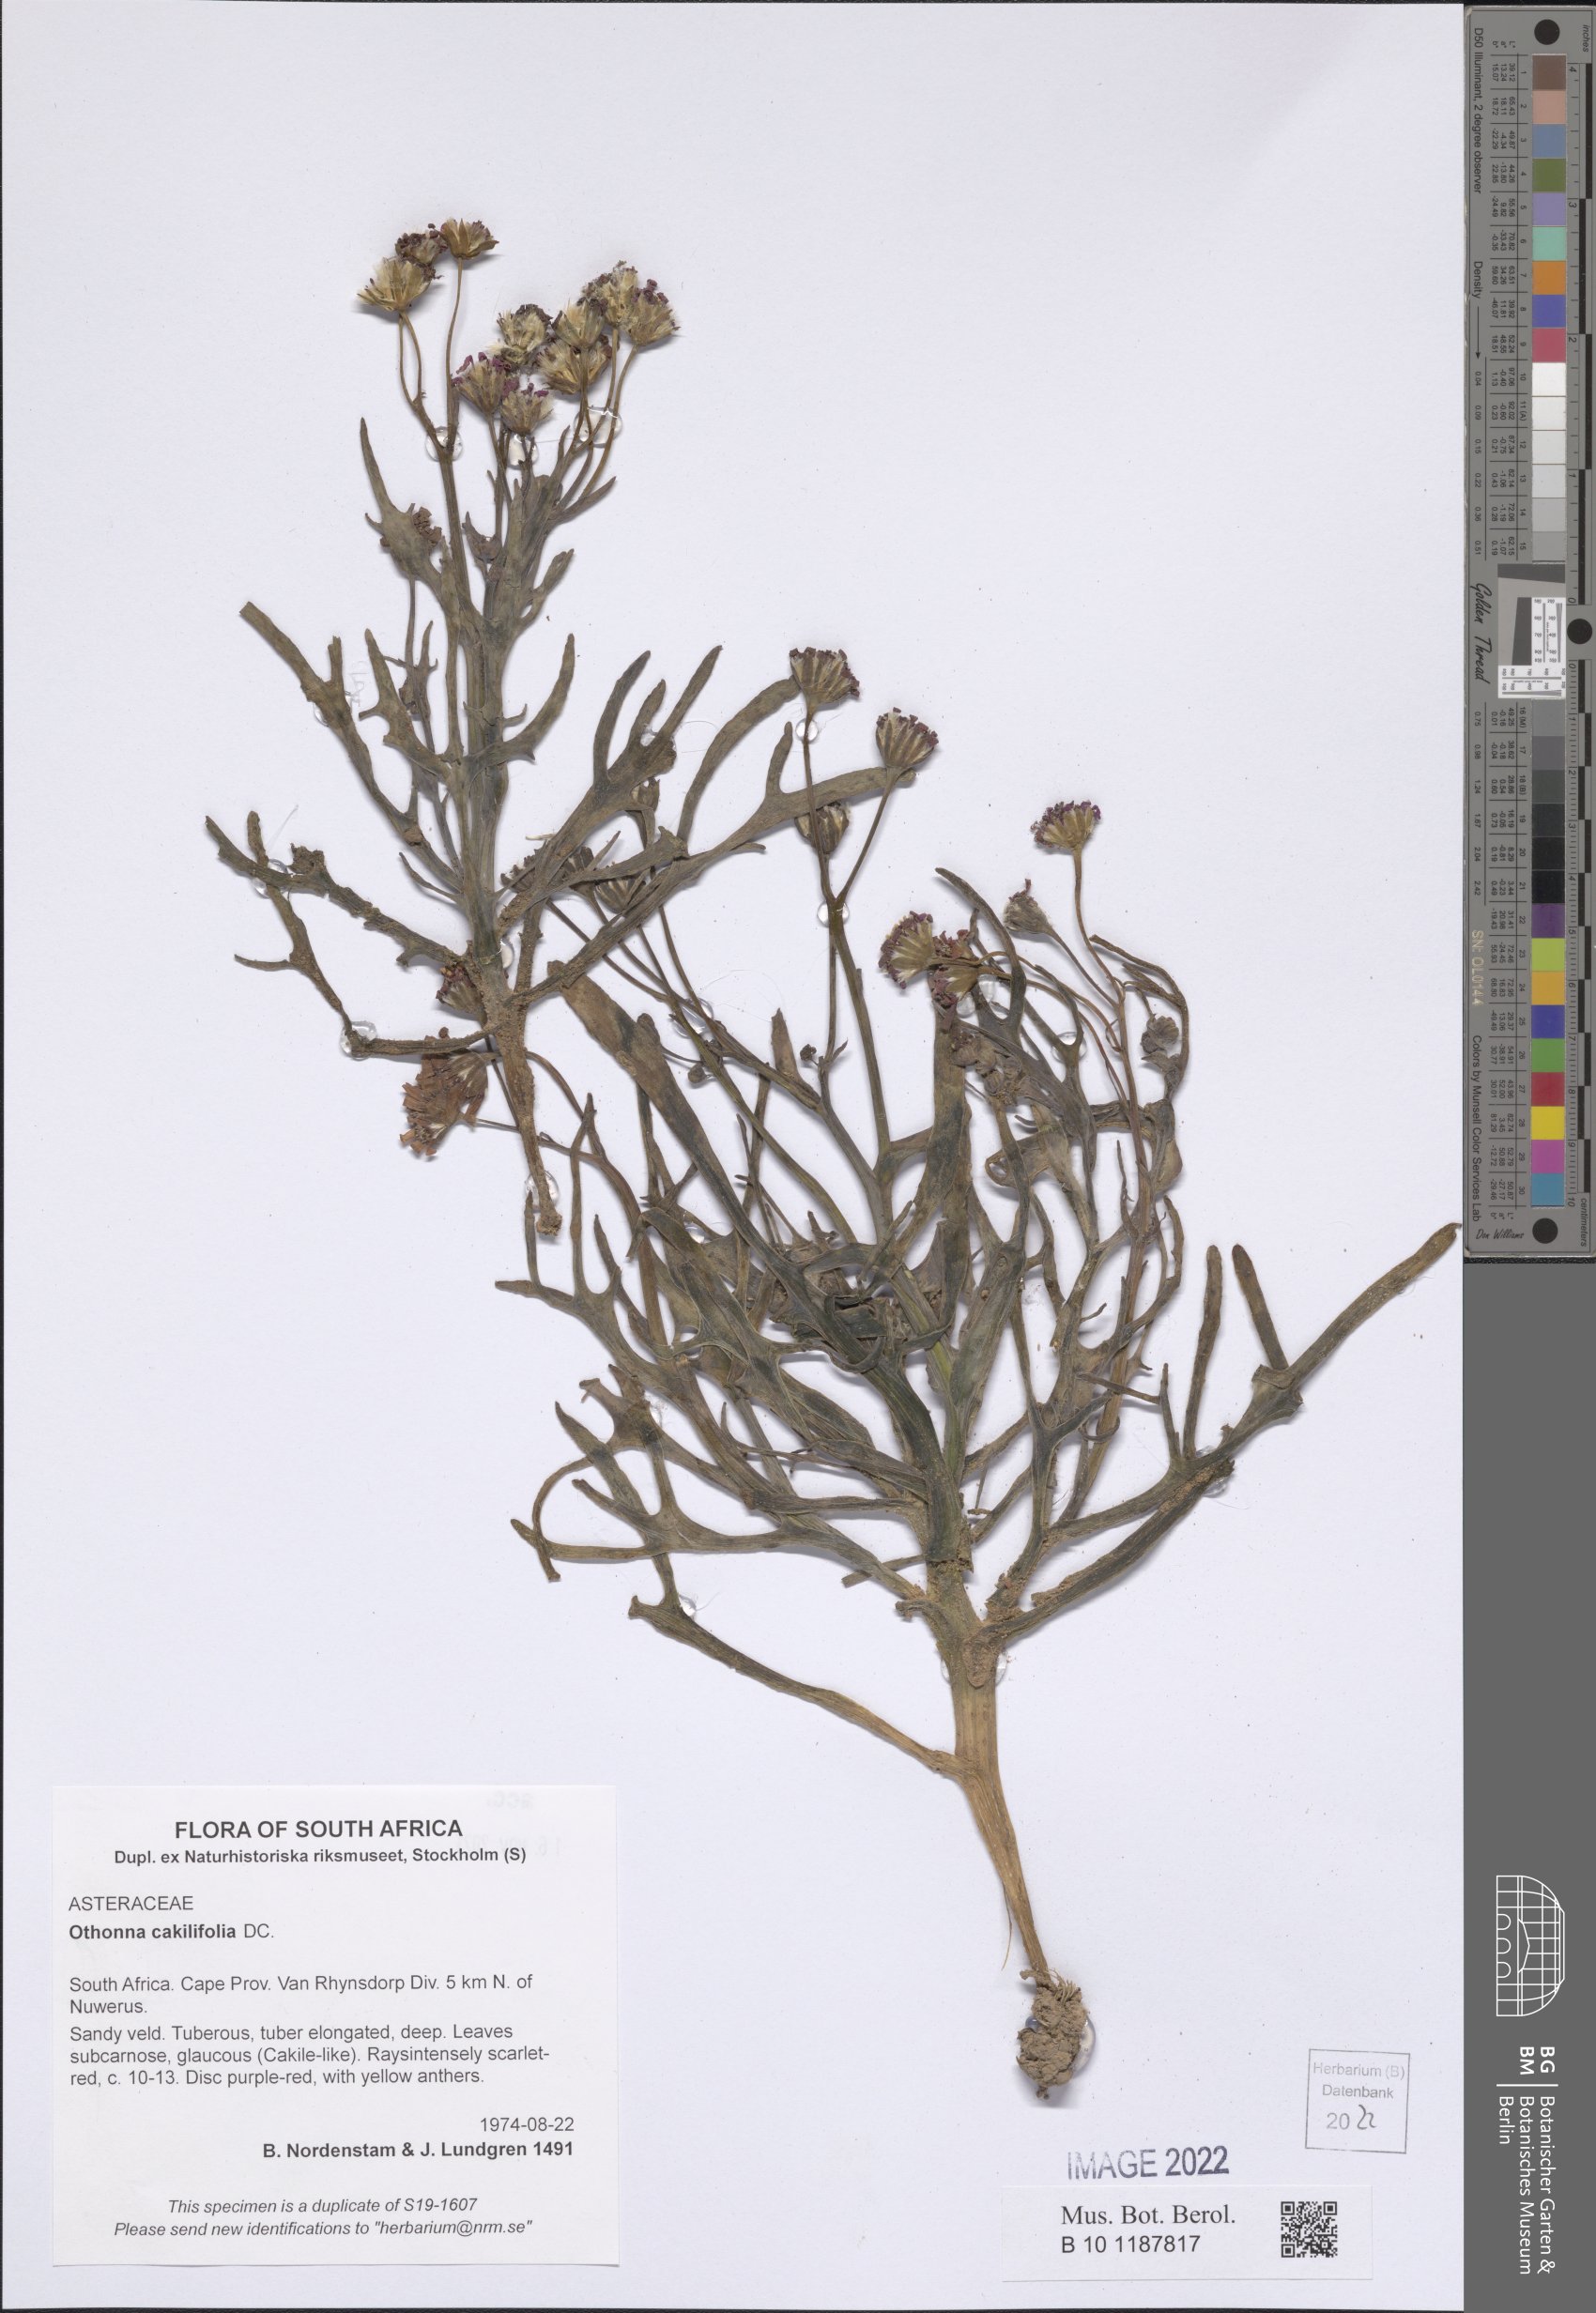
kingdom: Plantae
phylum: Tracheophyta
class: Magnoliopsida
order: Asterales
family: Asteraceae
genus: Othonna
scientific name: Othonna cakilefolia
